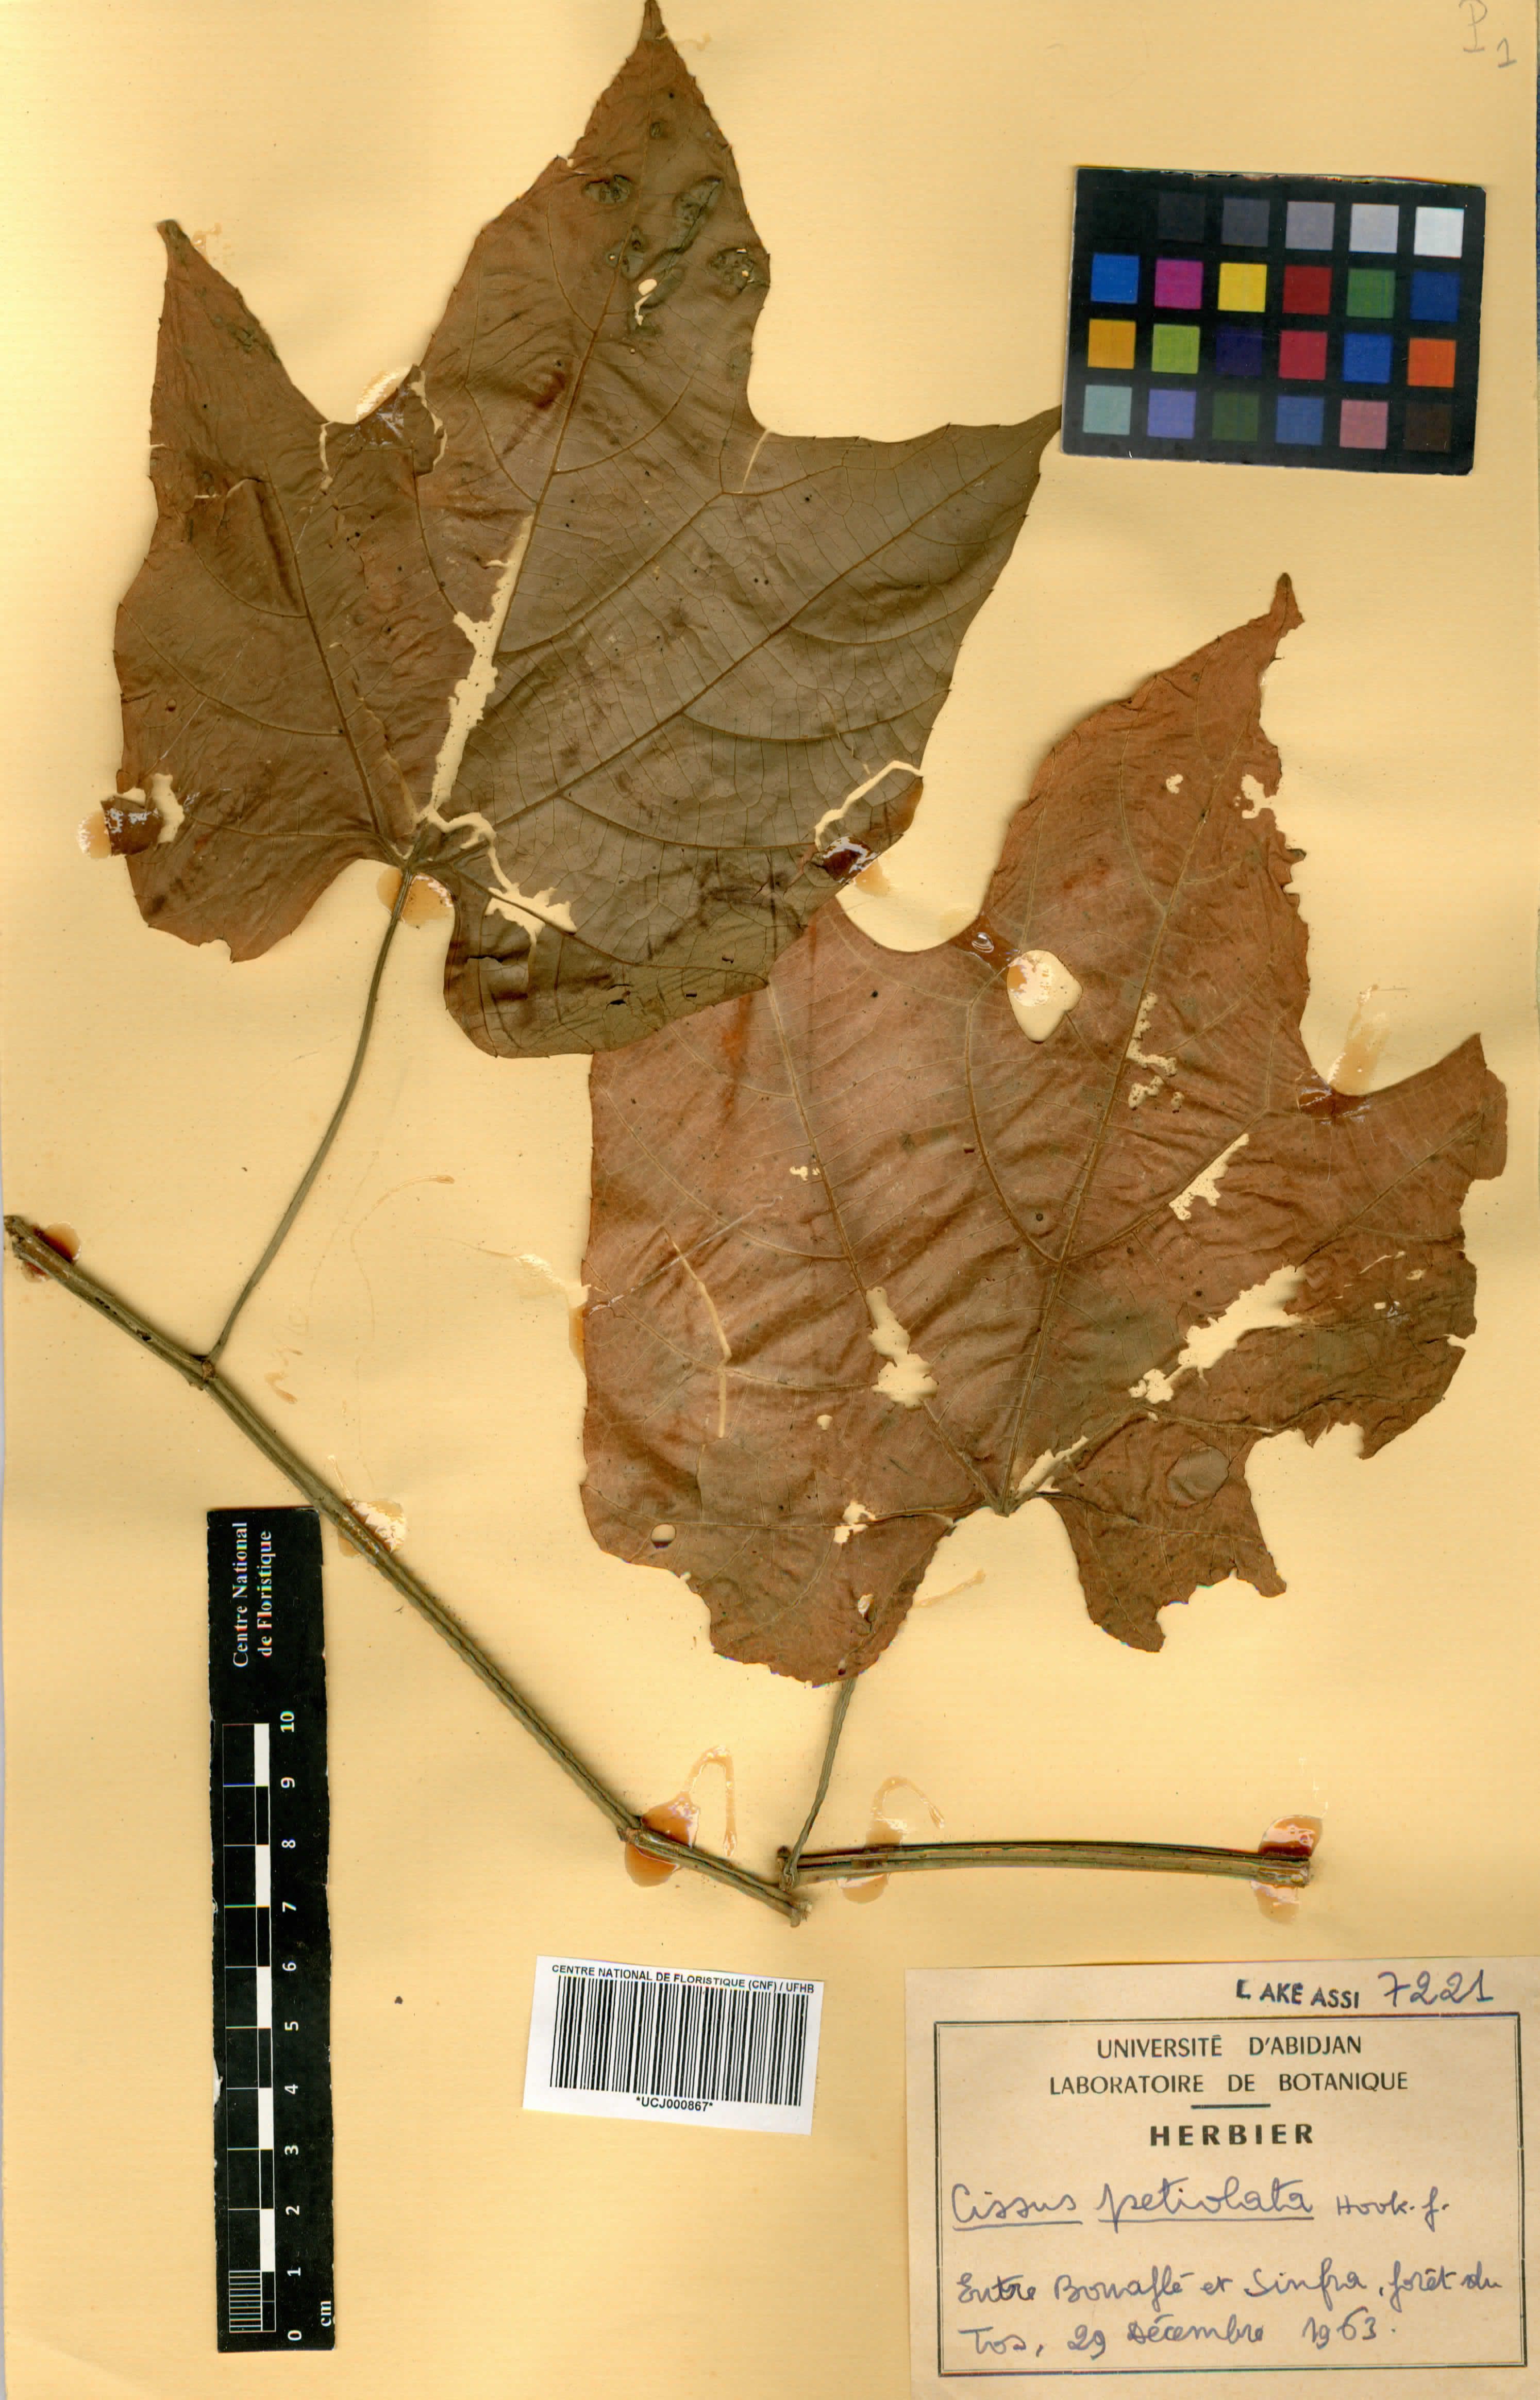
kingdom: Plantae
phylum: Tracheophyta
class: Magnoliopsida
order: Vitales
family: Vitaceae
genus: Cissus
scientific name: Cissus petiolata
